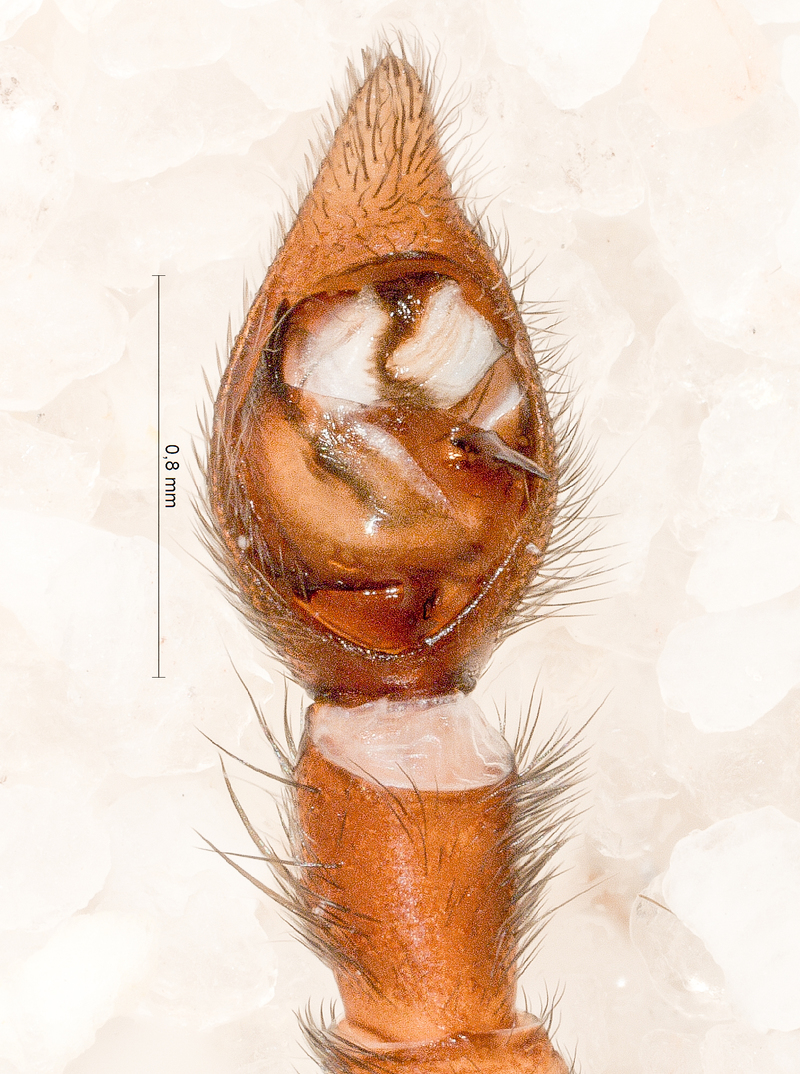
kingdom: Animalia
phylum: Arthropoda
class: Arachnida
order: Araneae
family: Lycosidae
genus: Alopecosa
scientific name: Alopecosa pulverulenta
